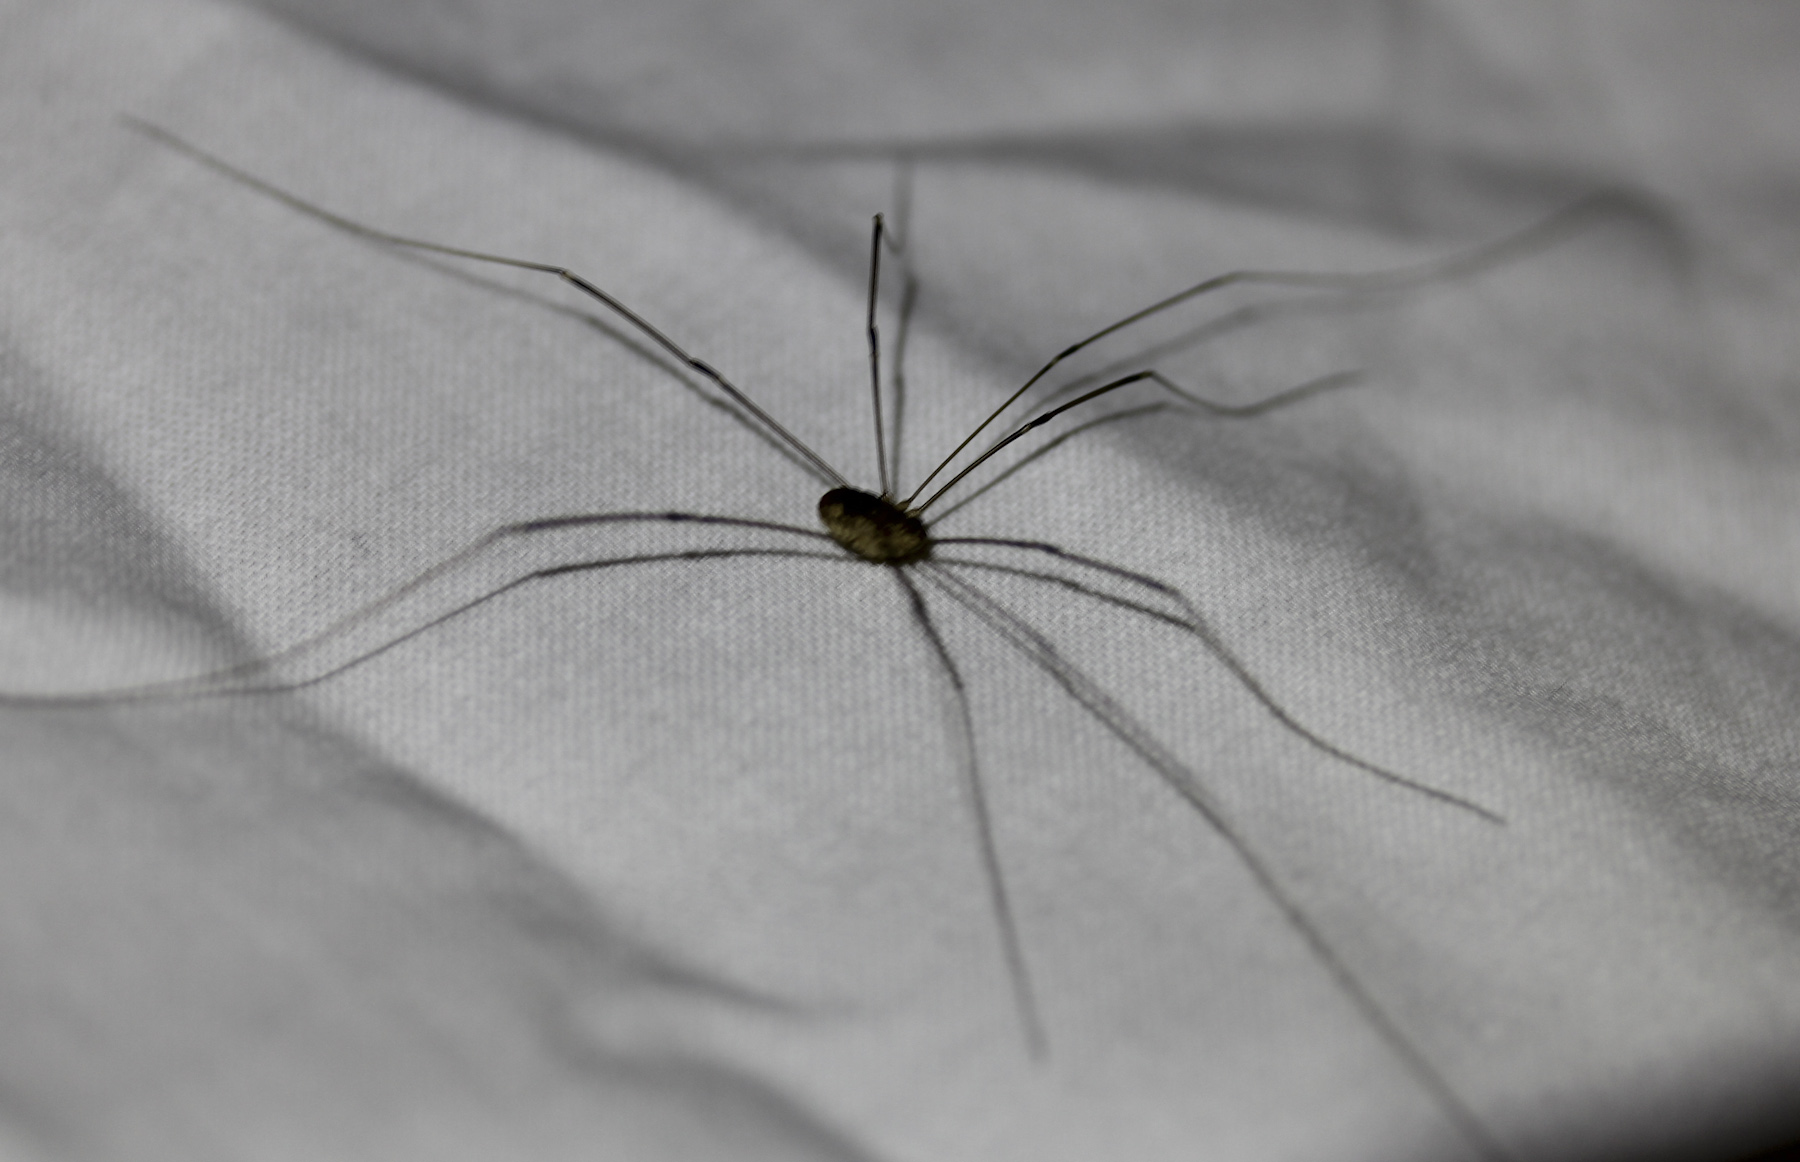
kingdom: Animalia
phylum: Arthropoda
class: Arachnida
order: Opiliones
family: Phalangiidae
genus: Phalangium
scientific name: Phalangium opilio
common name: Daddy longleg
